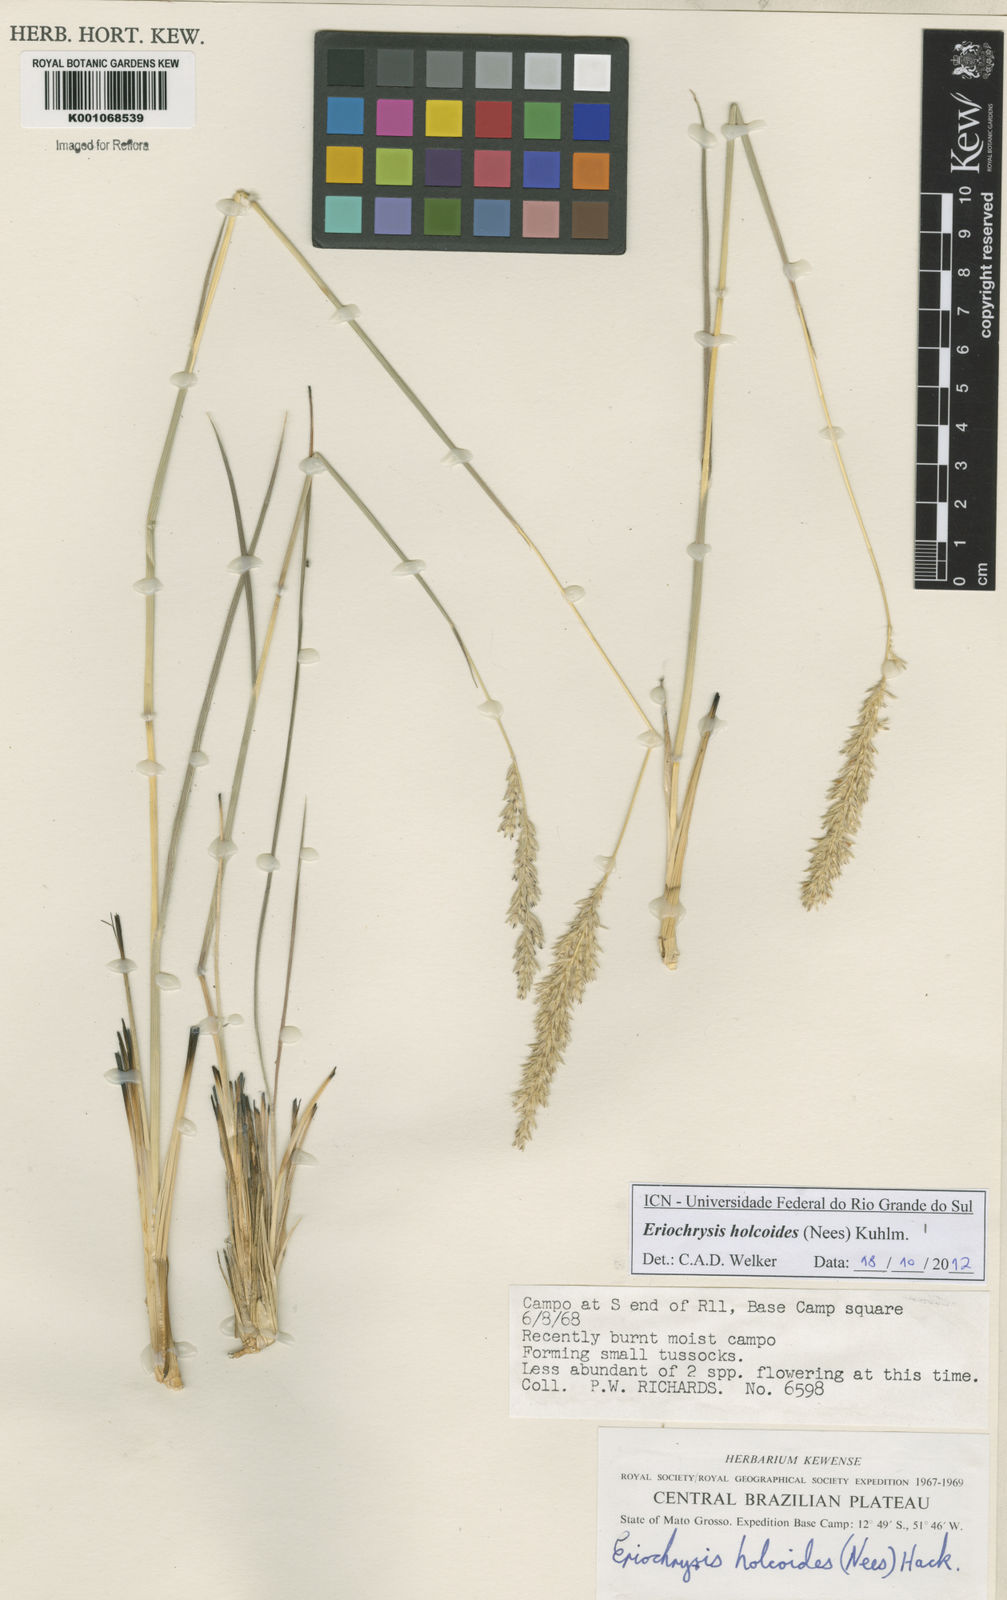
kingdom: Plantae
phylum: Tracheophyta
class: Liliopsida
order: Poales
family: Poaceae
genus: Eriochrysis
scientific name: Eriochrysis holcoides
